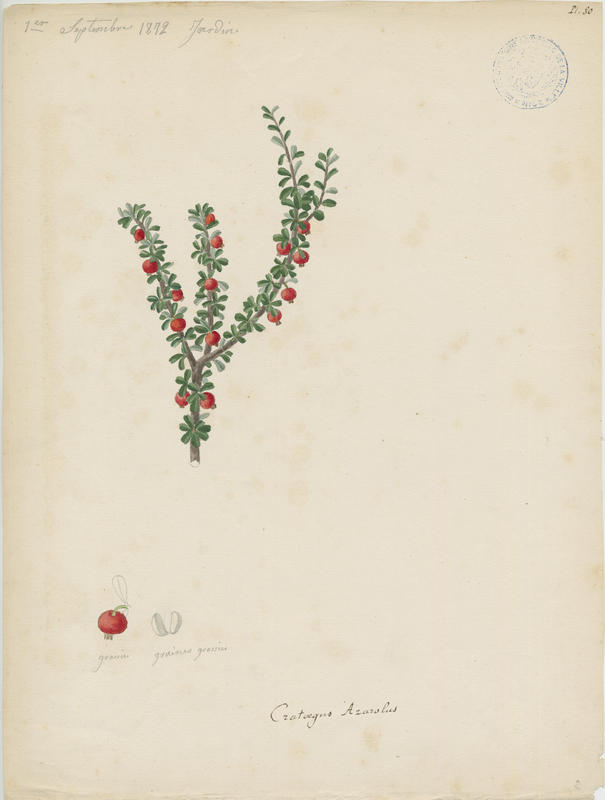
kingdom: Plantae
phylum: Tracheophyta
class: Magnoliopsida
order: Rosales
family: Rosaceae
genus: Crataegus
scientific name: Crataegus azarolus
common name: Azarole
